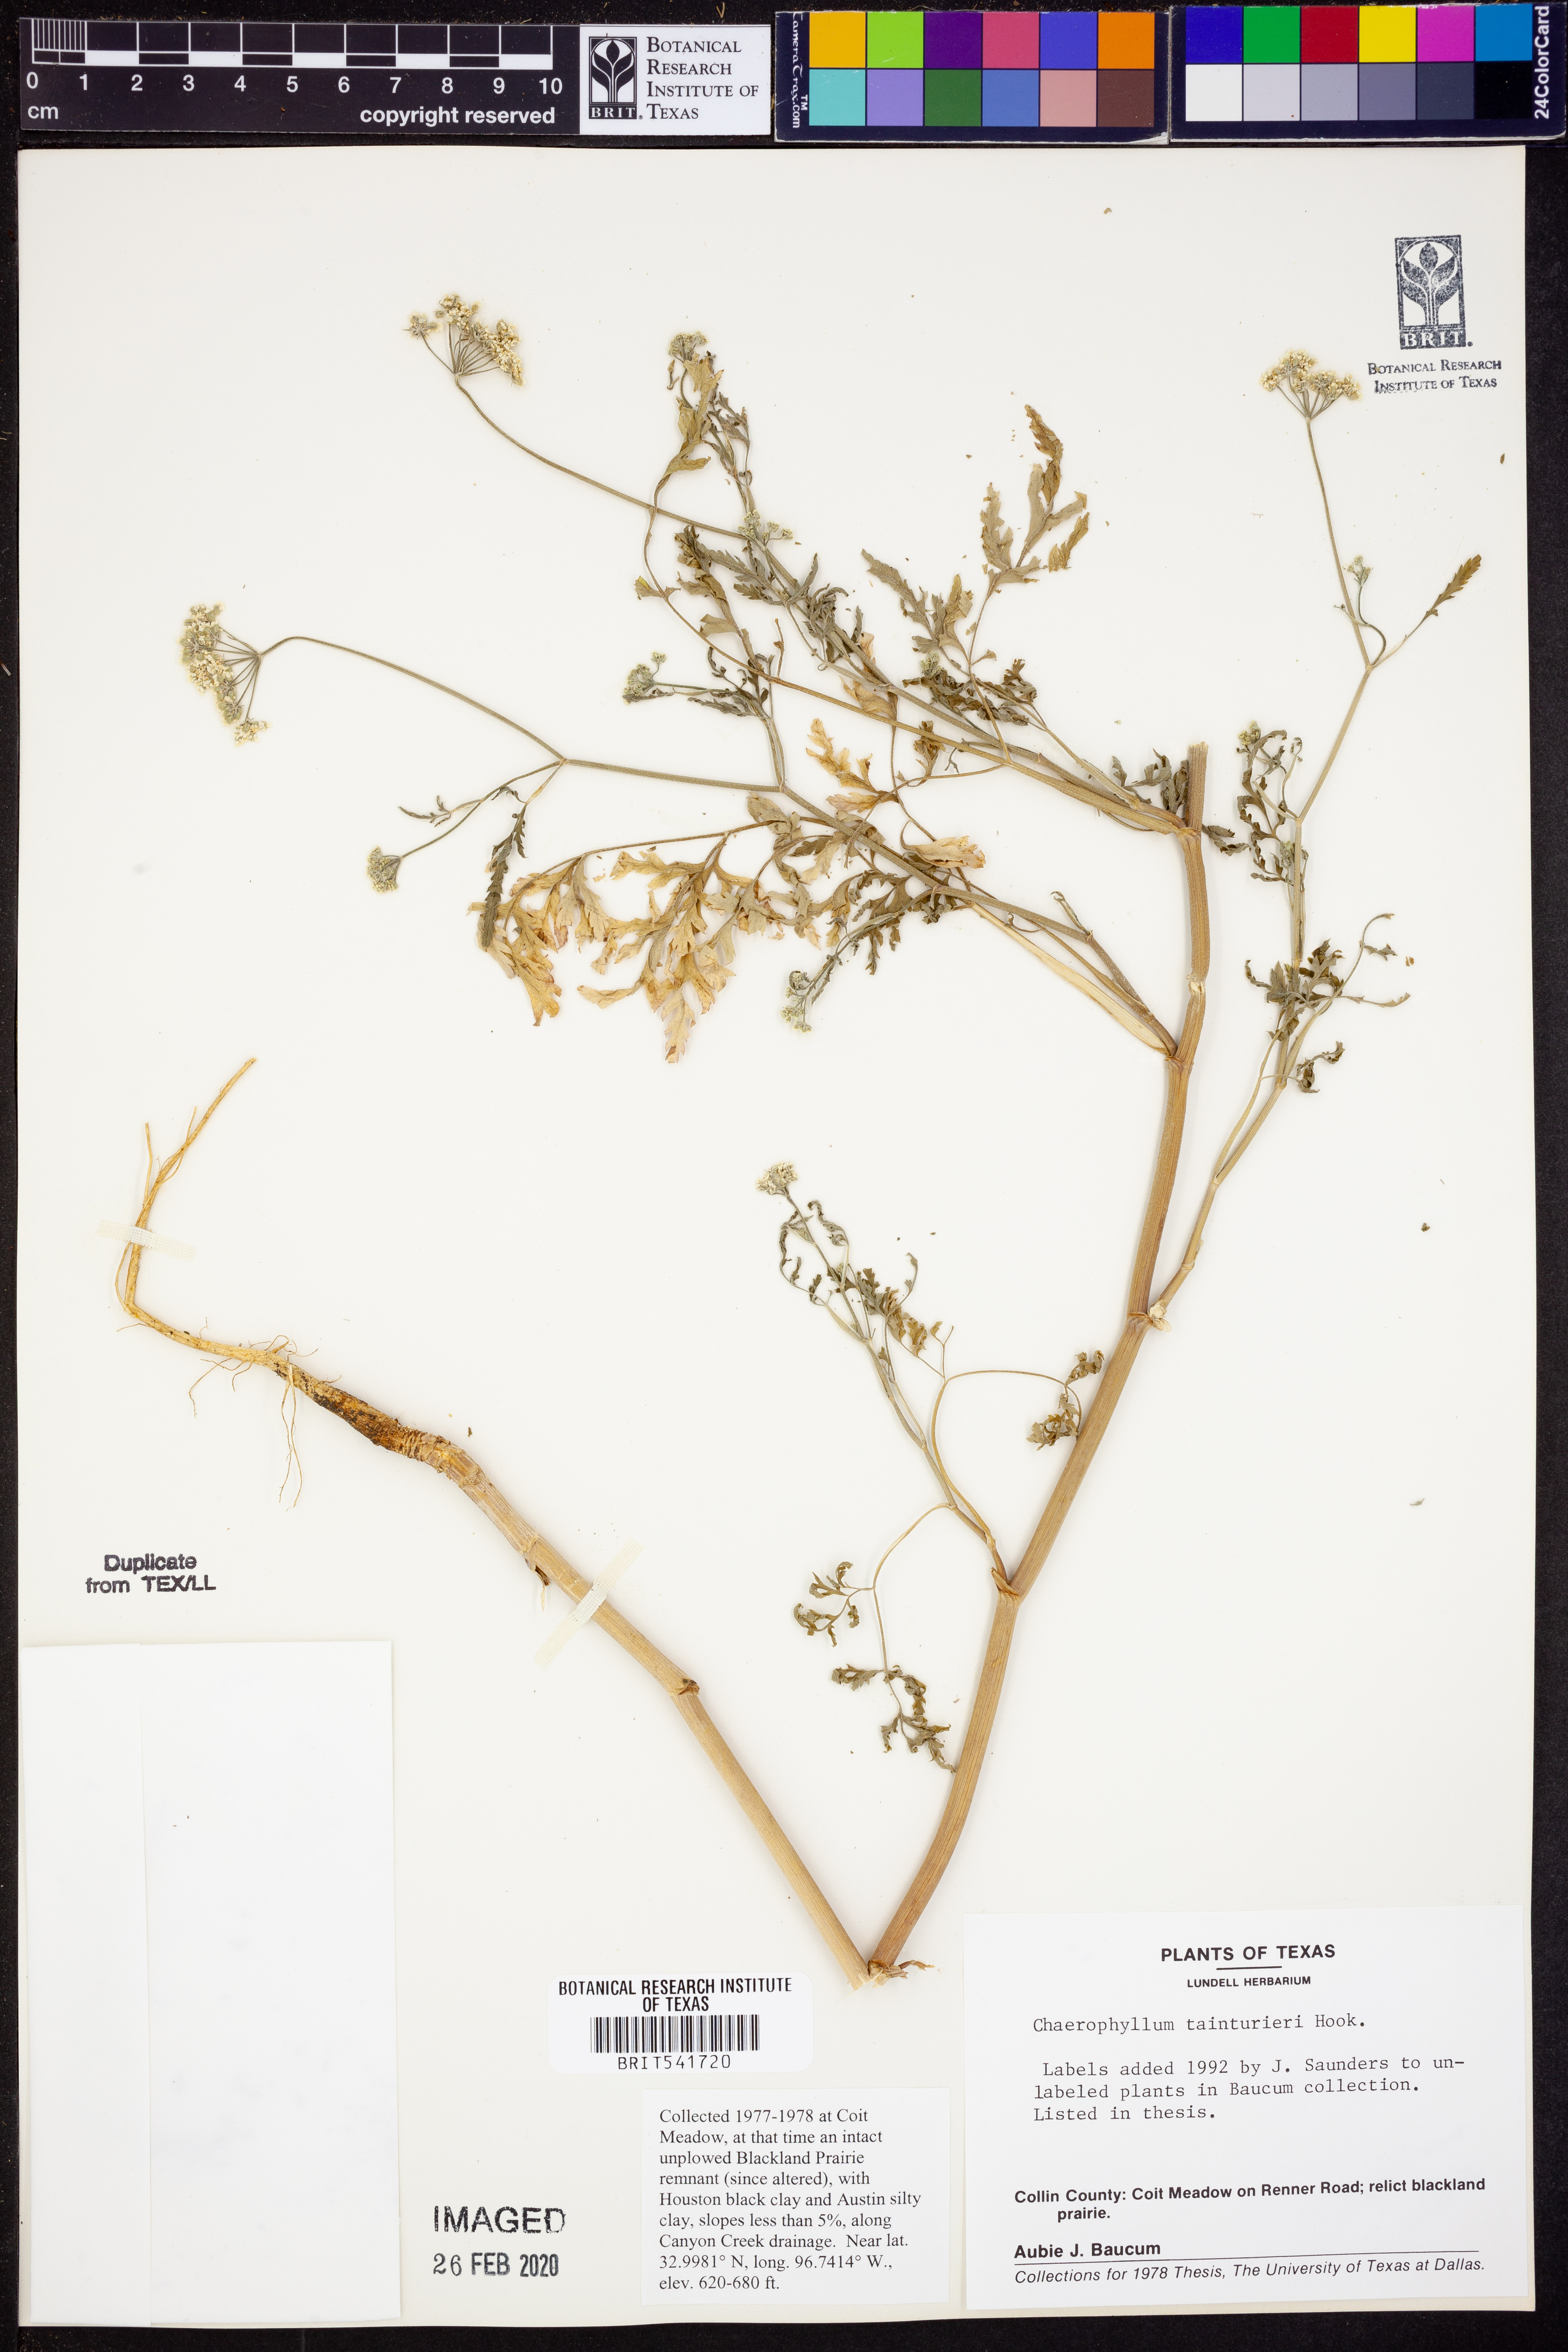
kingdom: Plantae
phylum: Tracheophyta
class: Magnoliopsida
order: Apiales
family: Apiaceae
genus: Chaerophyllum
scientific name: Chaerophyllum tainturieri
